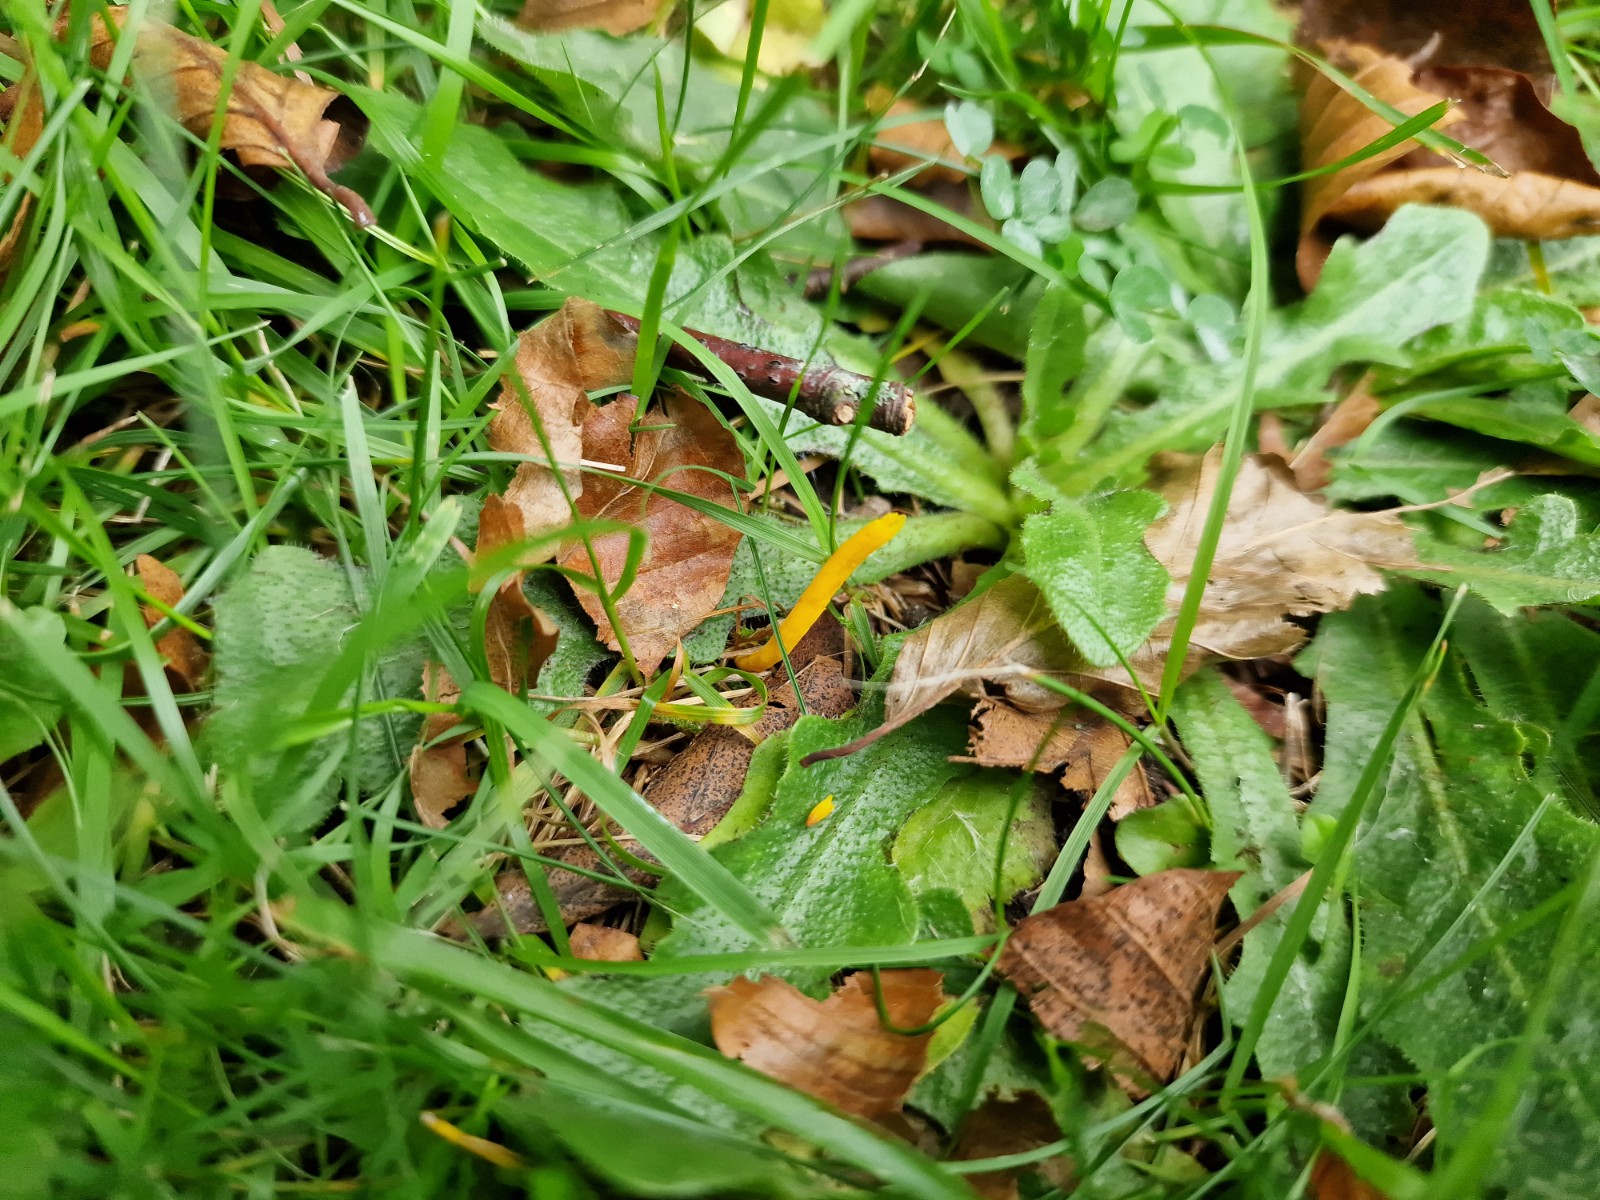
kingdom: Fungi
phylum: Basidiomycota
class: Agaricomycetes
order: Agaricales
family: Clavariaceae
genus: Clavulinopsis
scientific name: Clavulinopsis laeticolor
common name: flamme-køllesvamp
